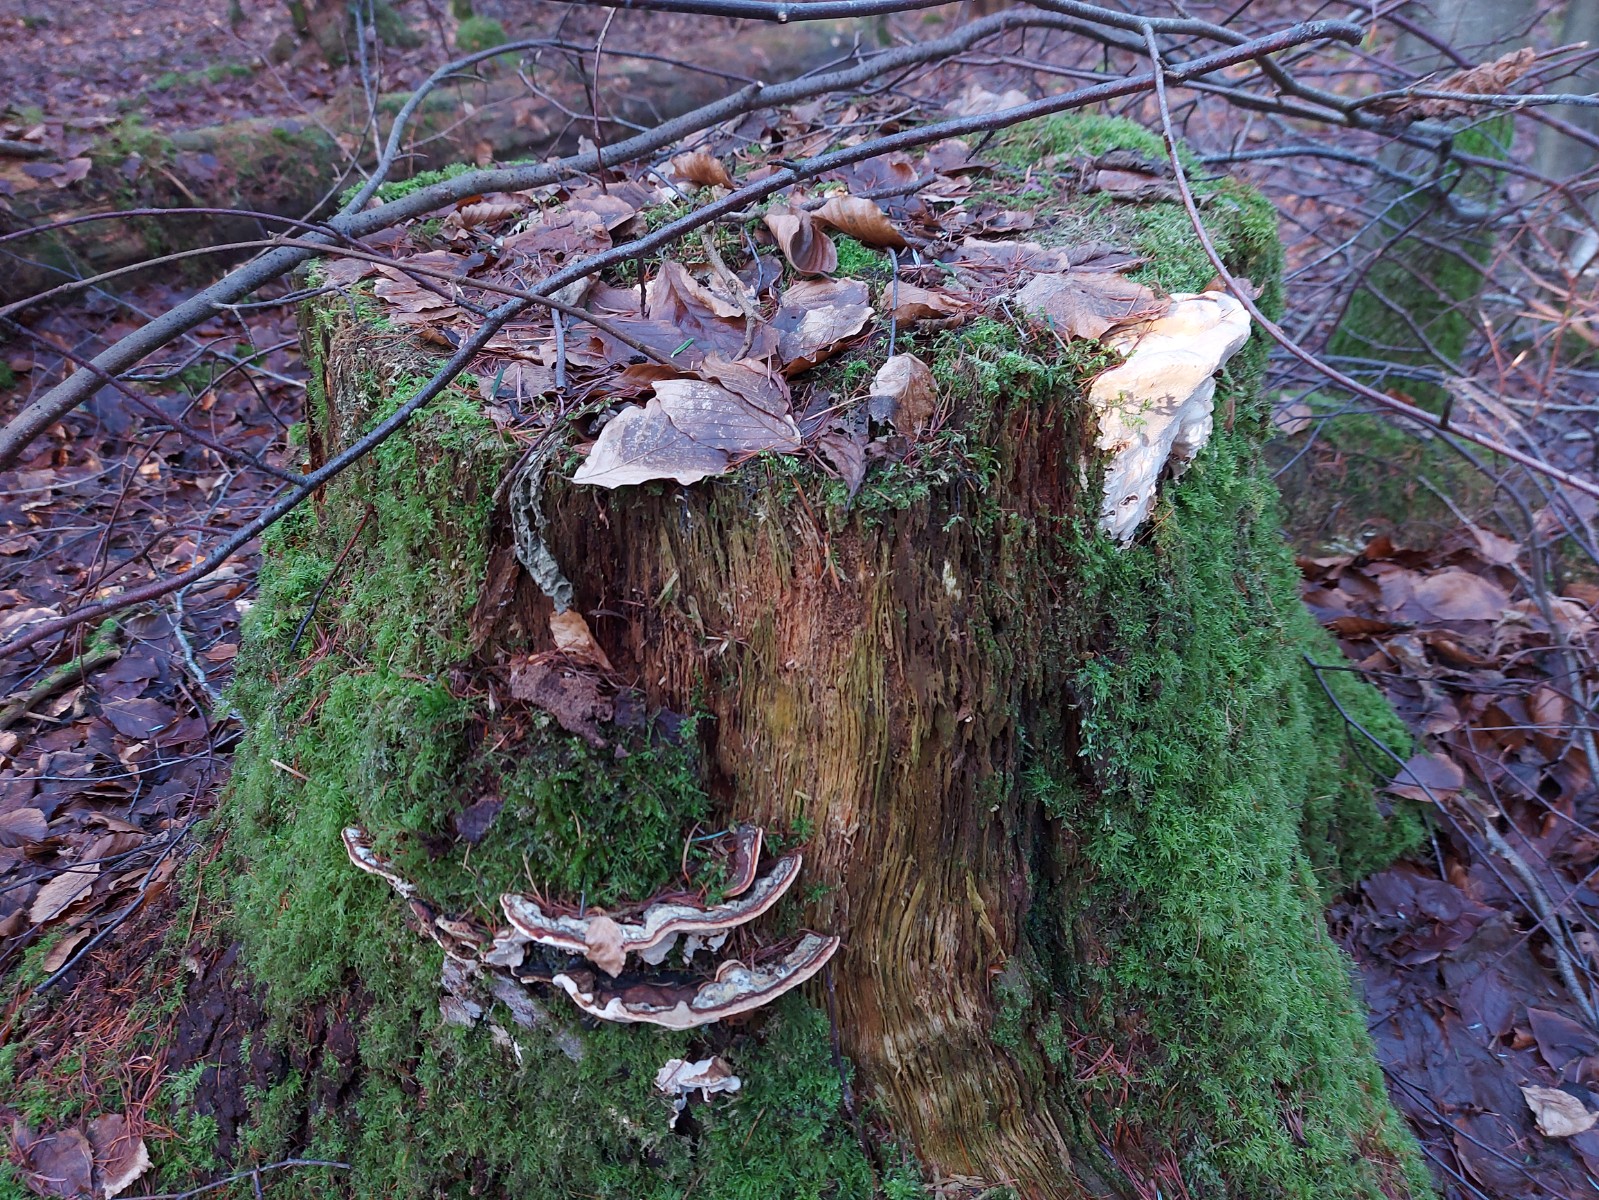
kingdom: Fungi
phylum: Basidiomycota
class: Agaricomycetes
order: Russulales
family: Bondarzewiaceae
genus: Heterobasidion
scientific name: Heterobasidion annosum
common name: almindelig rodfordærver
